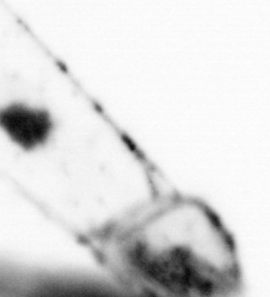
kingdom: Animalia
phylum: Chaetognatha
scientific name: Chaetognatha
